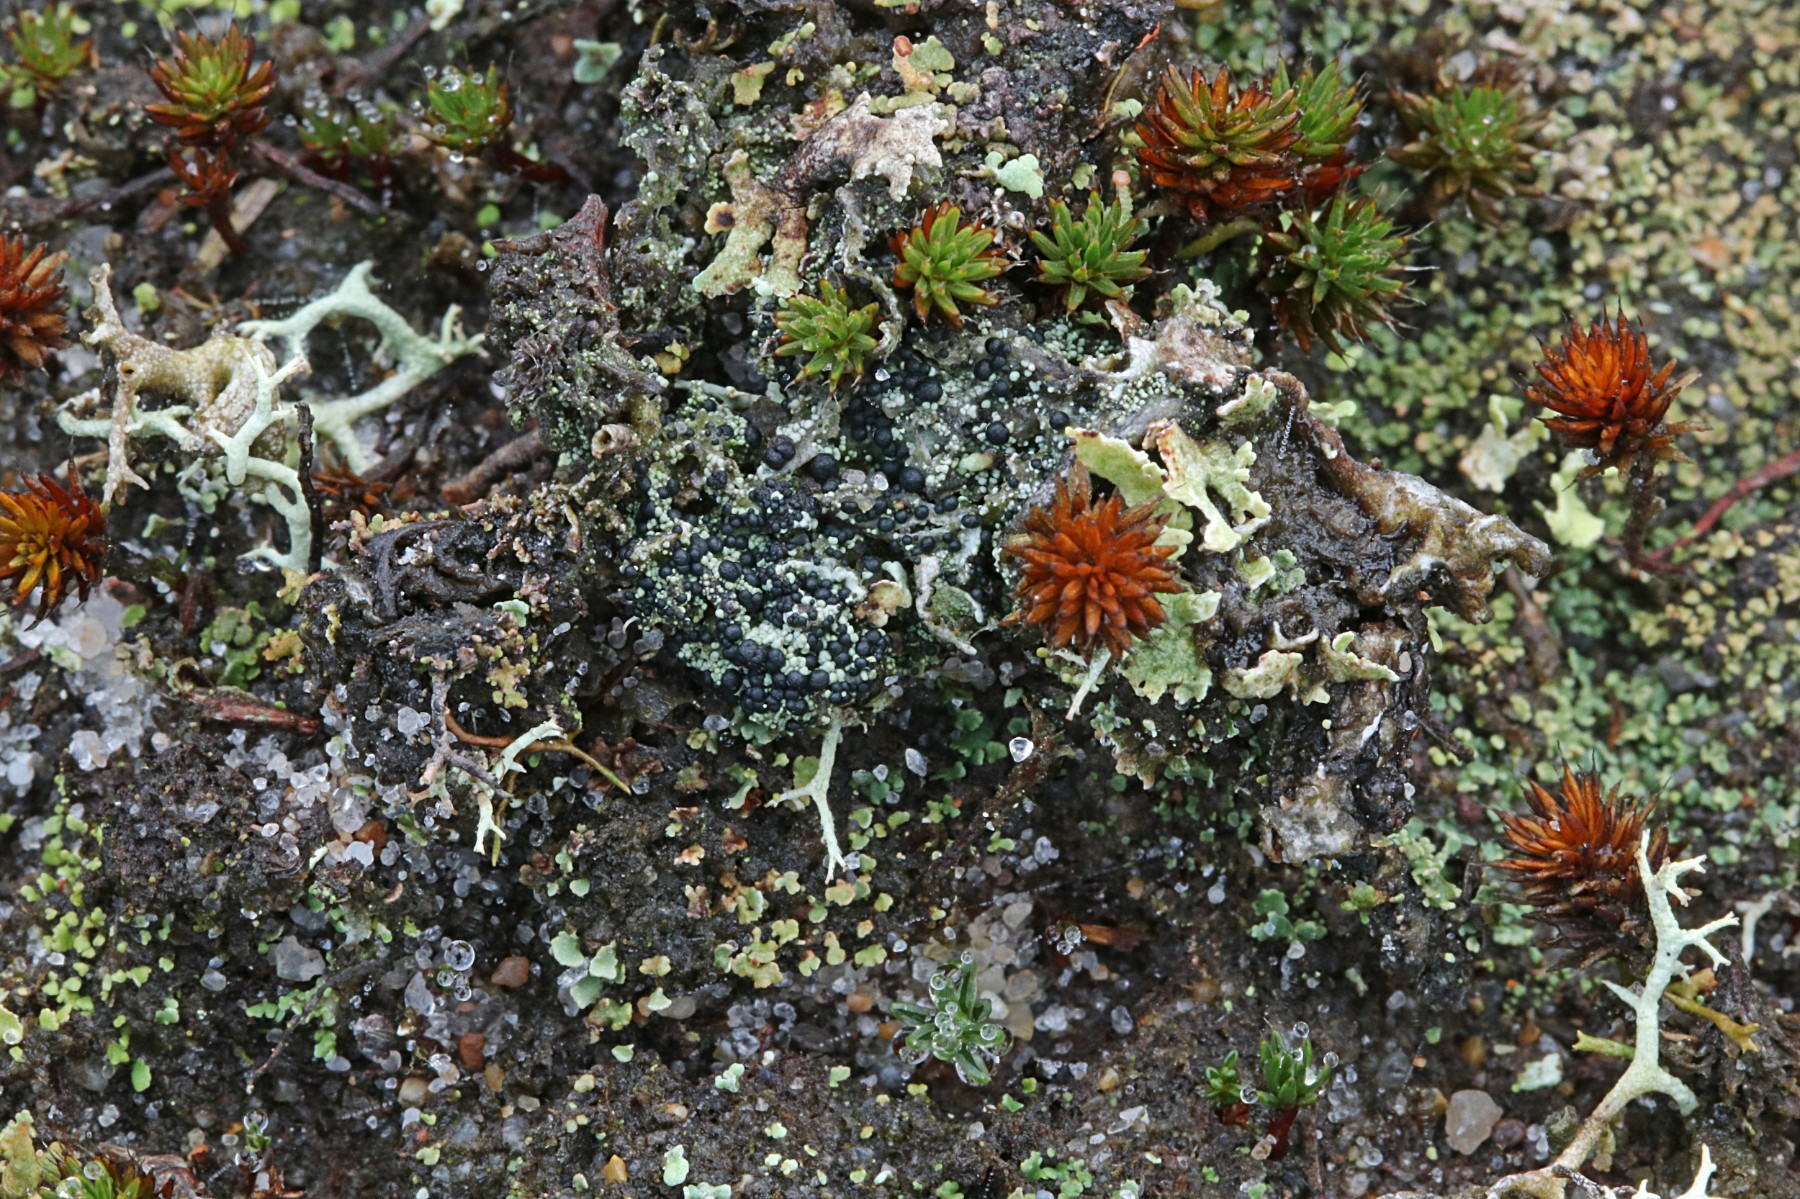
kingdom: Fungi
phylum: Ascomycota
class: Lecanoromycetes
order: Lecanorales
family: Byssolomataceae
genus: Micarea
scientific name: Micarea lignaria
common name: tørve-knaplav
